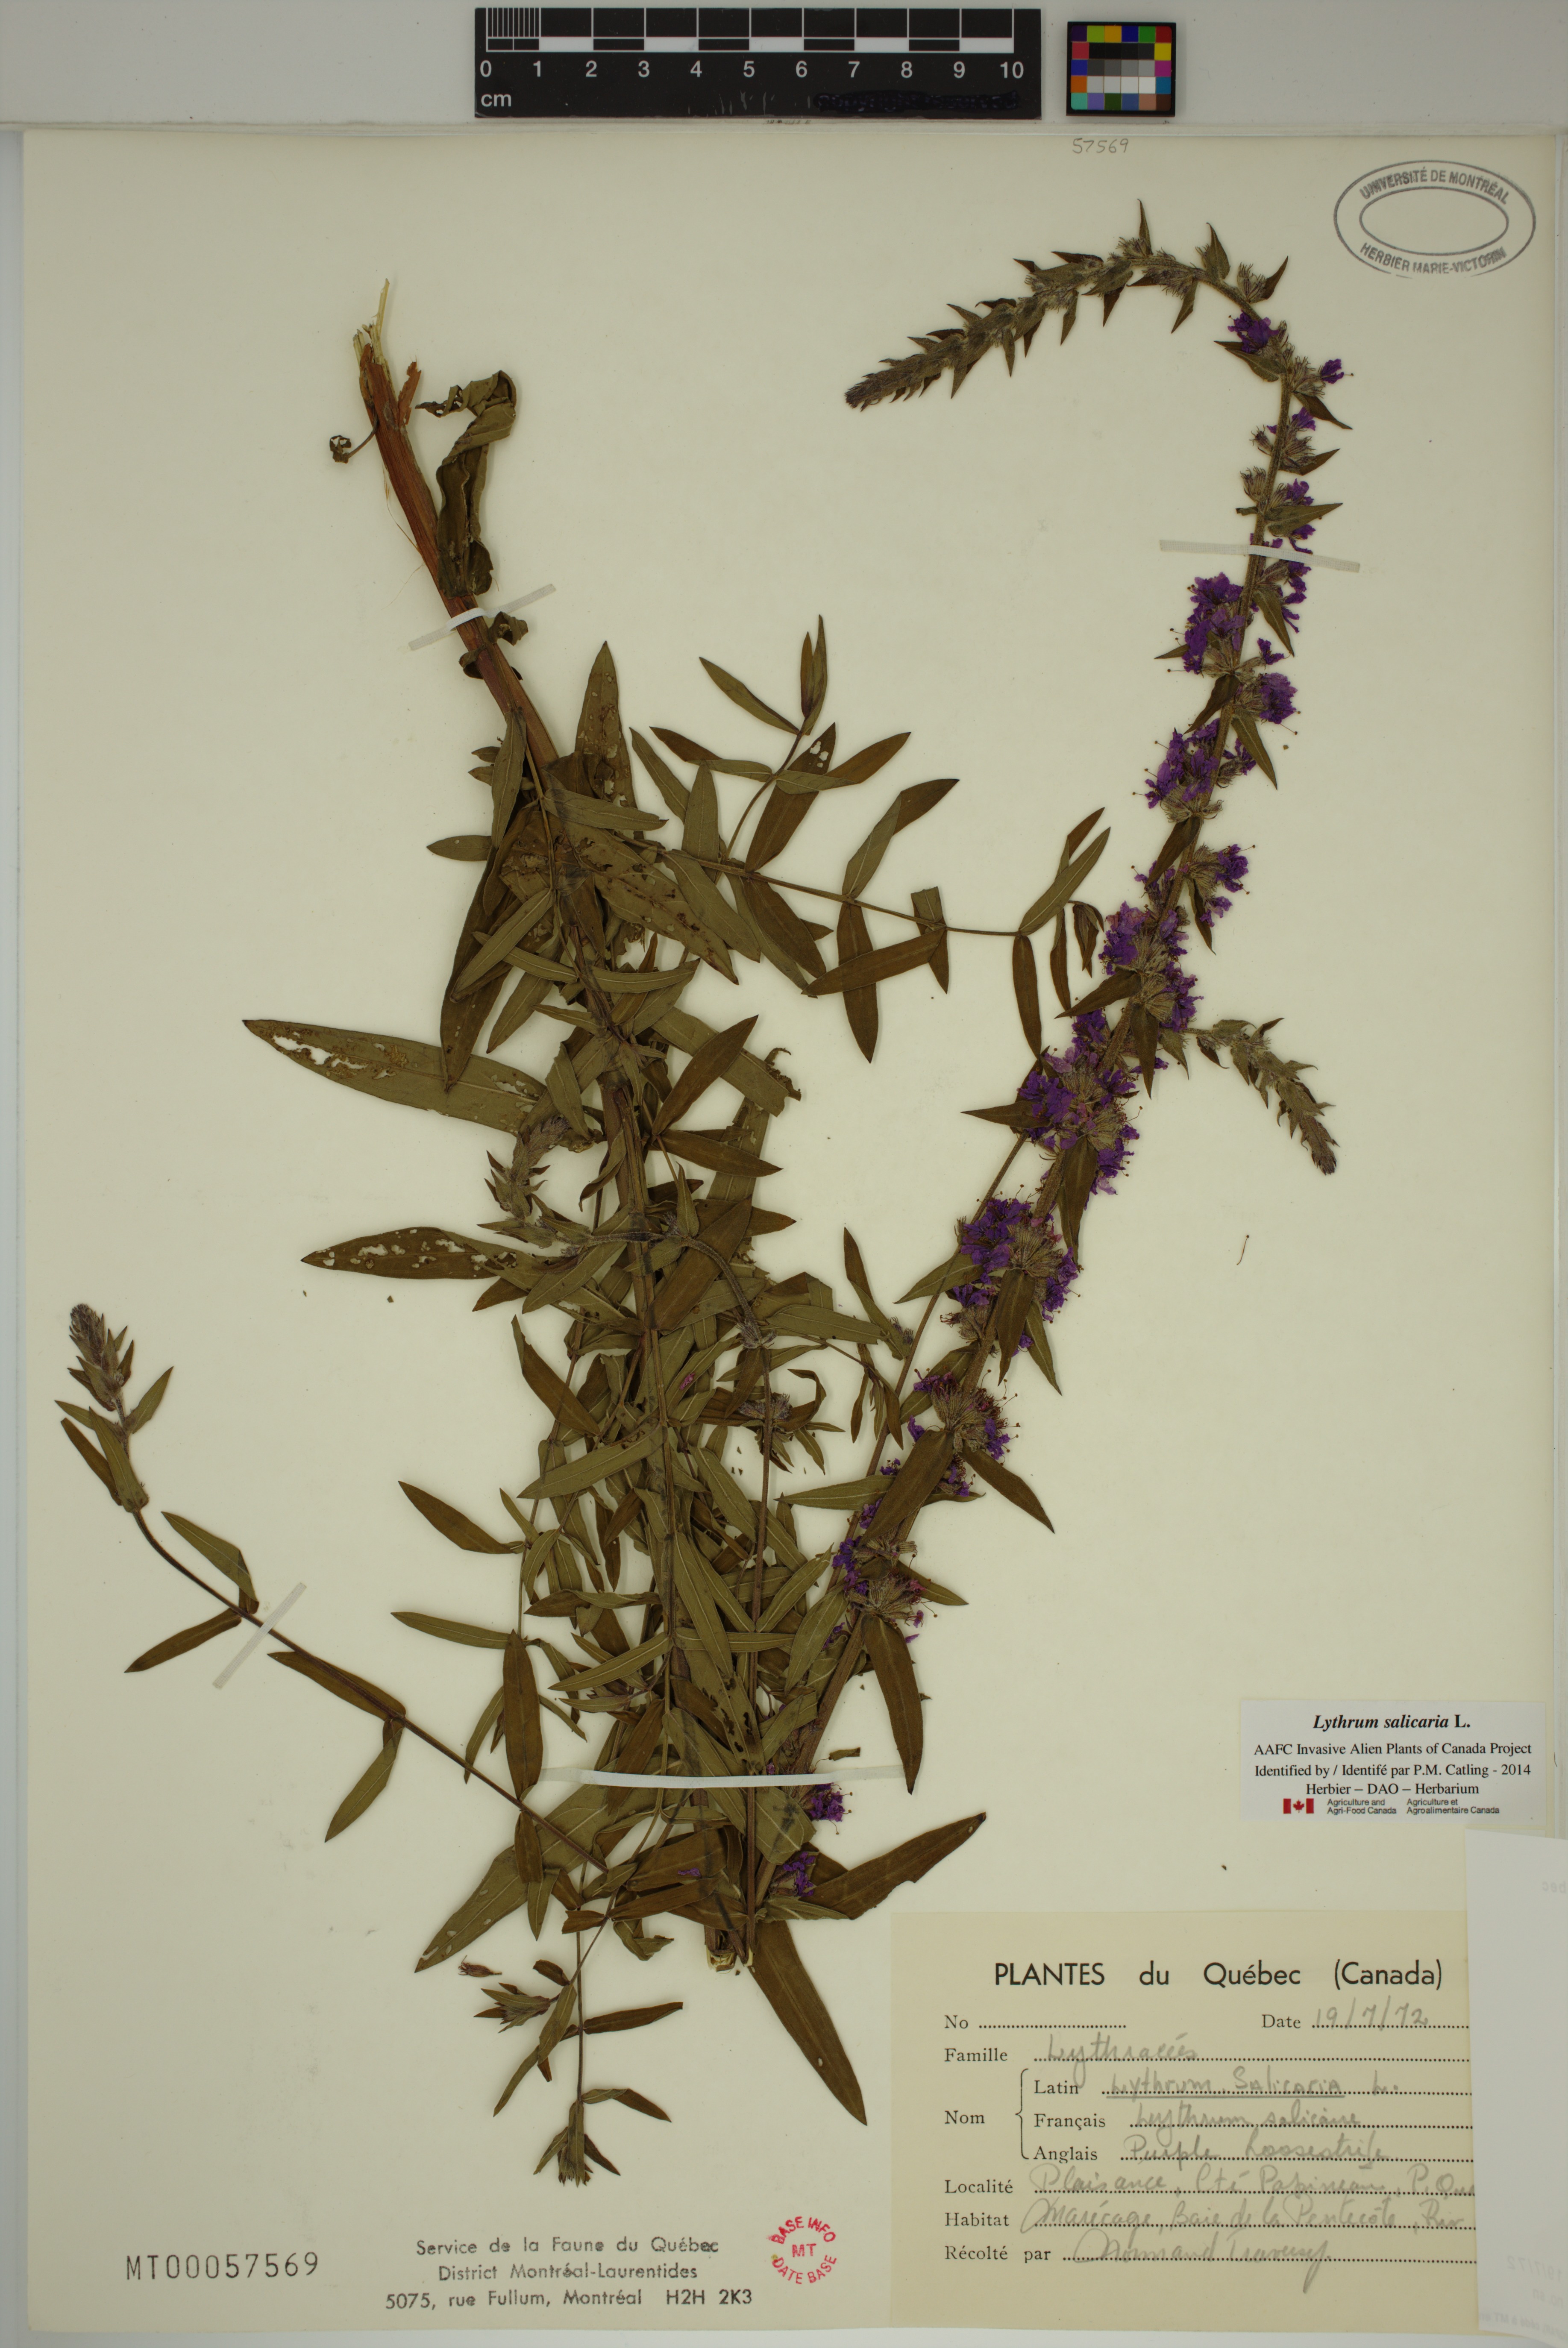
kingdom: Plantae
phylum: Tracheophyta
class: Magnoliopsida
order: Myrtales
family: Lythraceae
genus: Lythrum
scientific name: Lythrum salicaria
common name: Purple loosestrife
